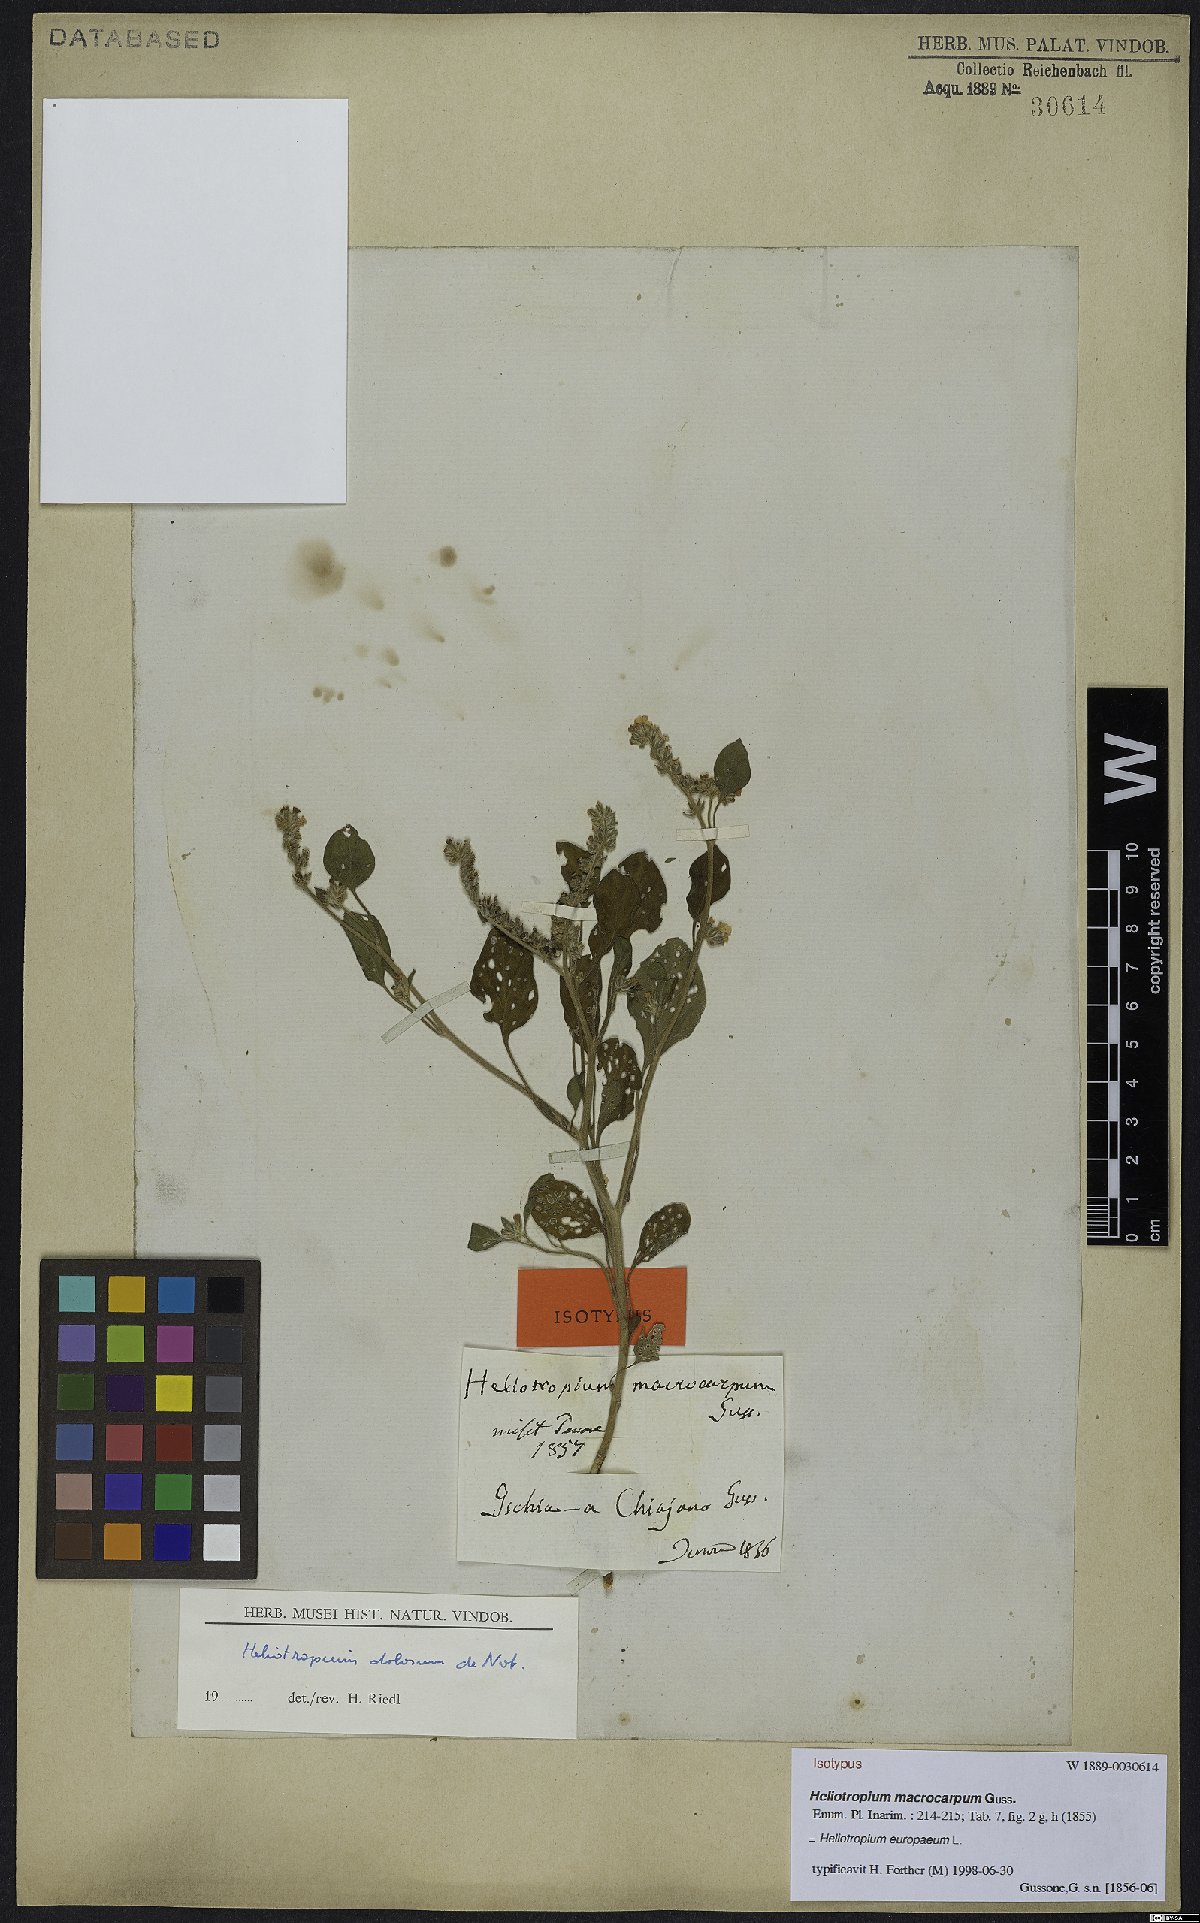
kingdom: Plantae
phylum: Tracheophyta
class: Magnoliopsida
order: Boraginales
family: Heliotropiaceae
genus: Heliotropium
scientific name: Heliotropium europaeum
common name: European heliotrope
